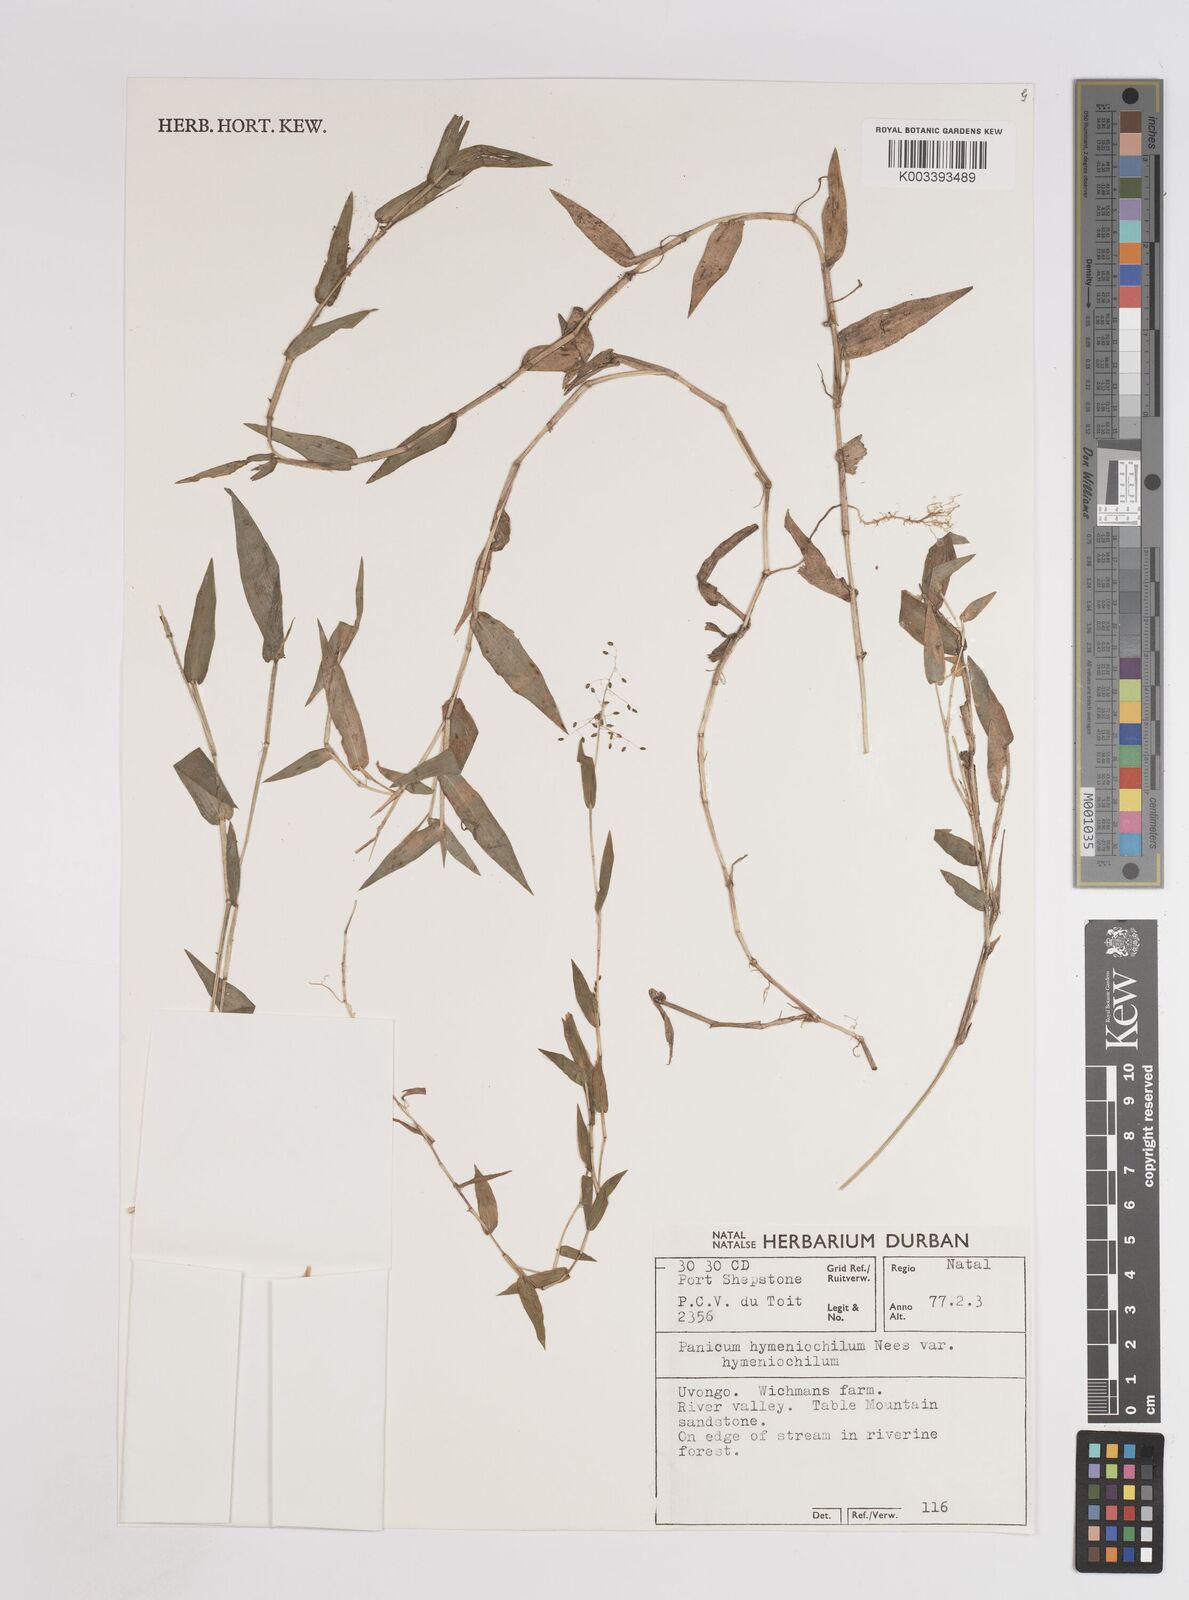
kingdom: Plantae
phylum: Tracheophyta
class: Liliopsida
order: Poales
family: Poaceae
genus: Adenochloa
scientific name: Adenochloa hymeniochila
